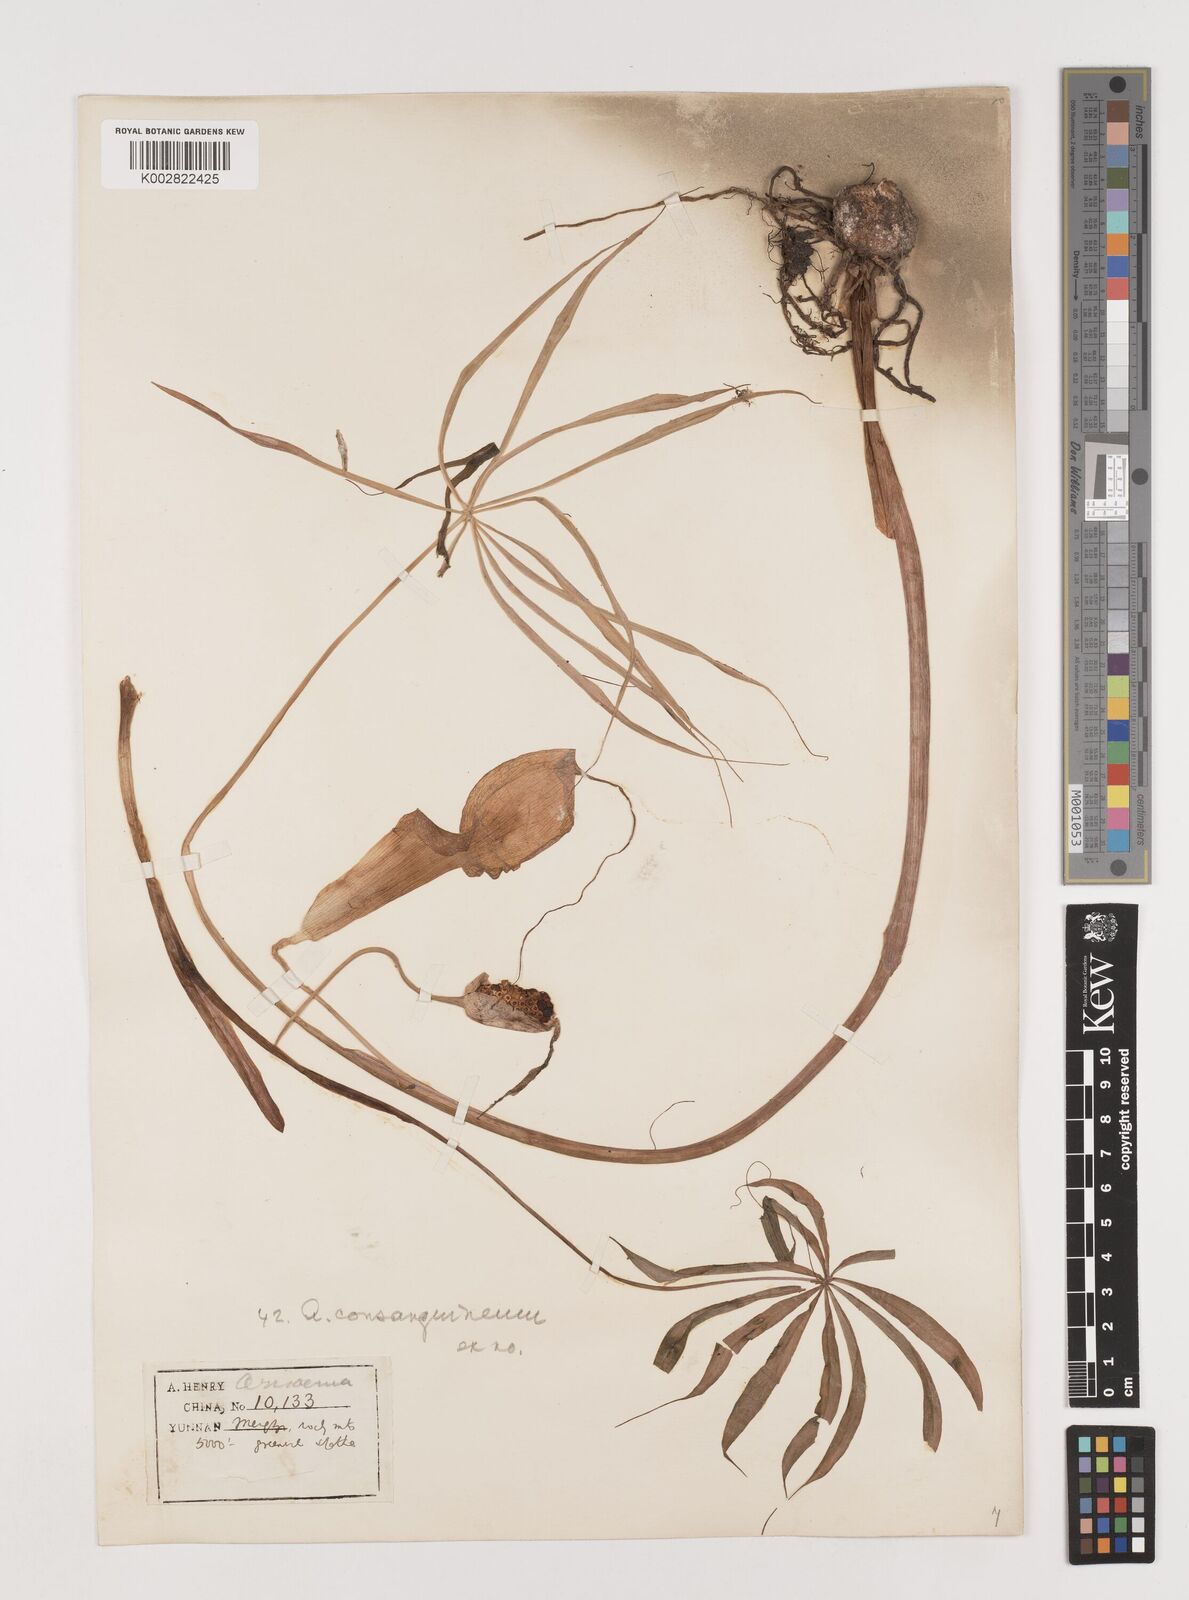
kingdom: Plantae
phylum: Tracheophyta
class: Liliopsida
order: Alismatales
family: Araceae
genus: Arisaema
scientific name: Arisaema erubescens
